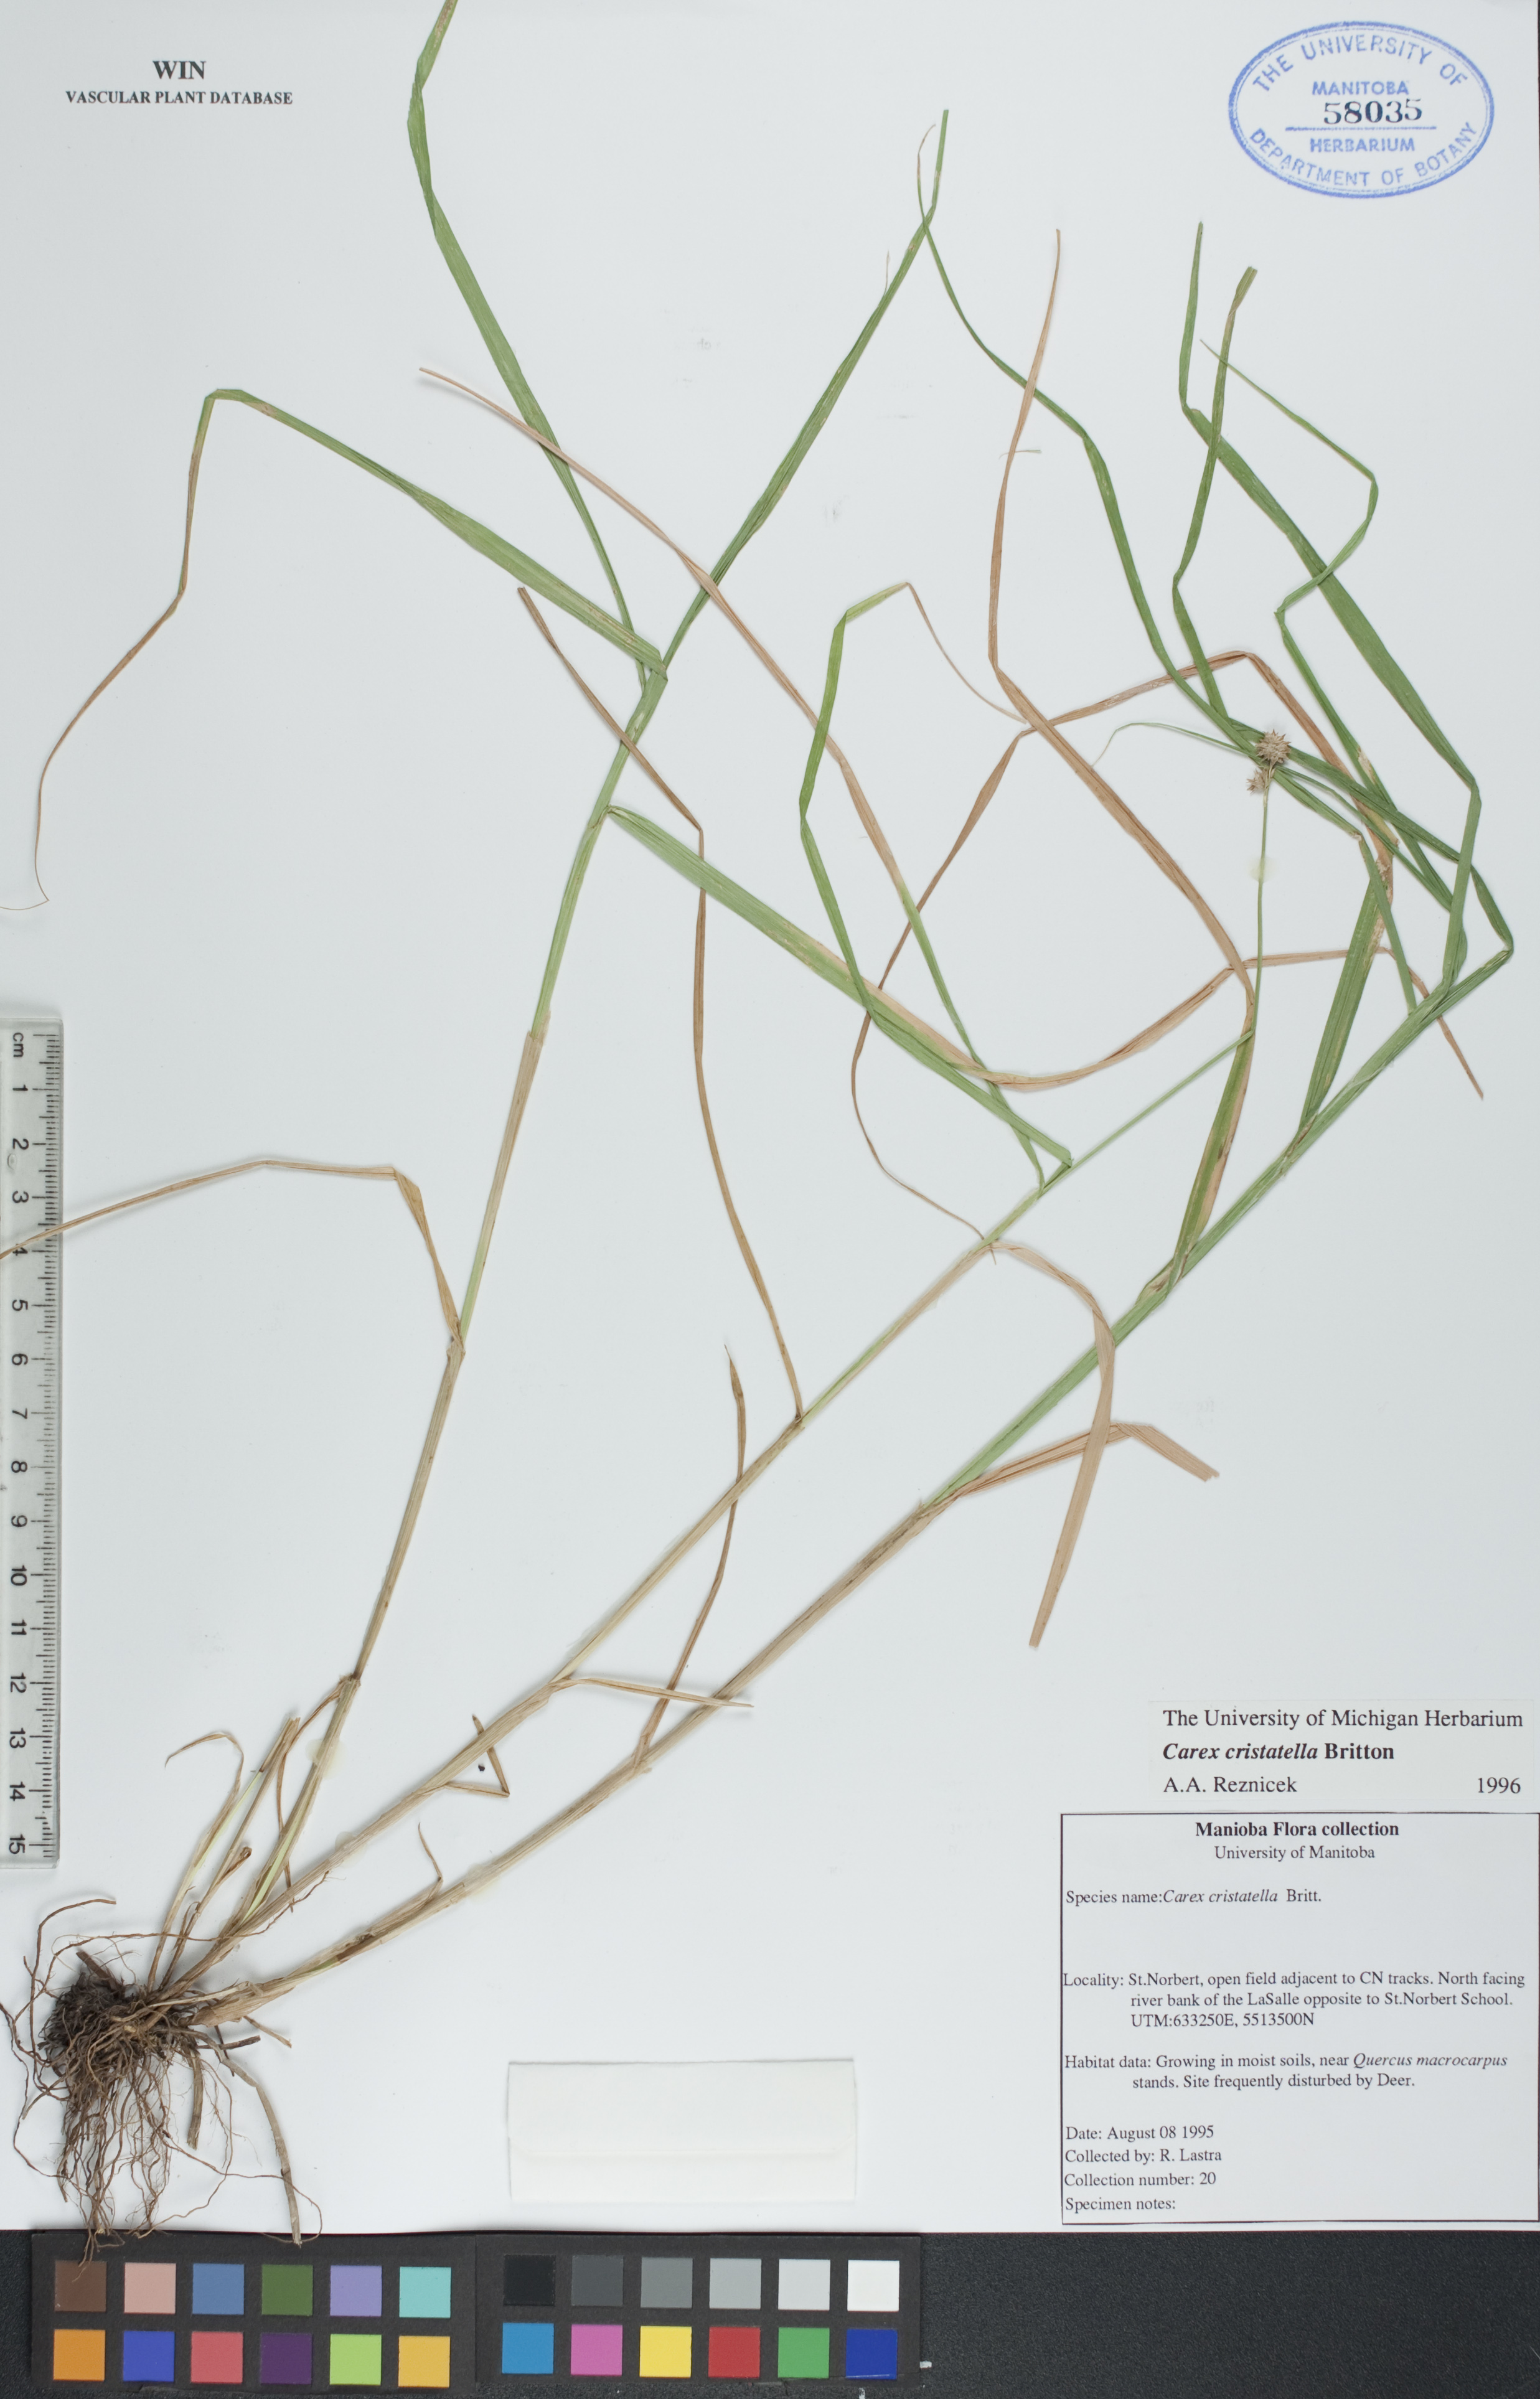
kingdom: Plantae
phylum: Tracheophyta
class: Liliopsida
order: Poales
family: Cyperaceae
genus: Carex
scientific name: Carex cristatella
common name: Crested oval sedge
